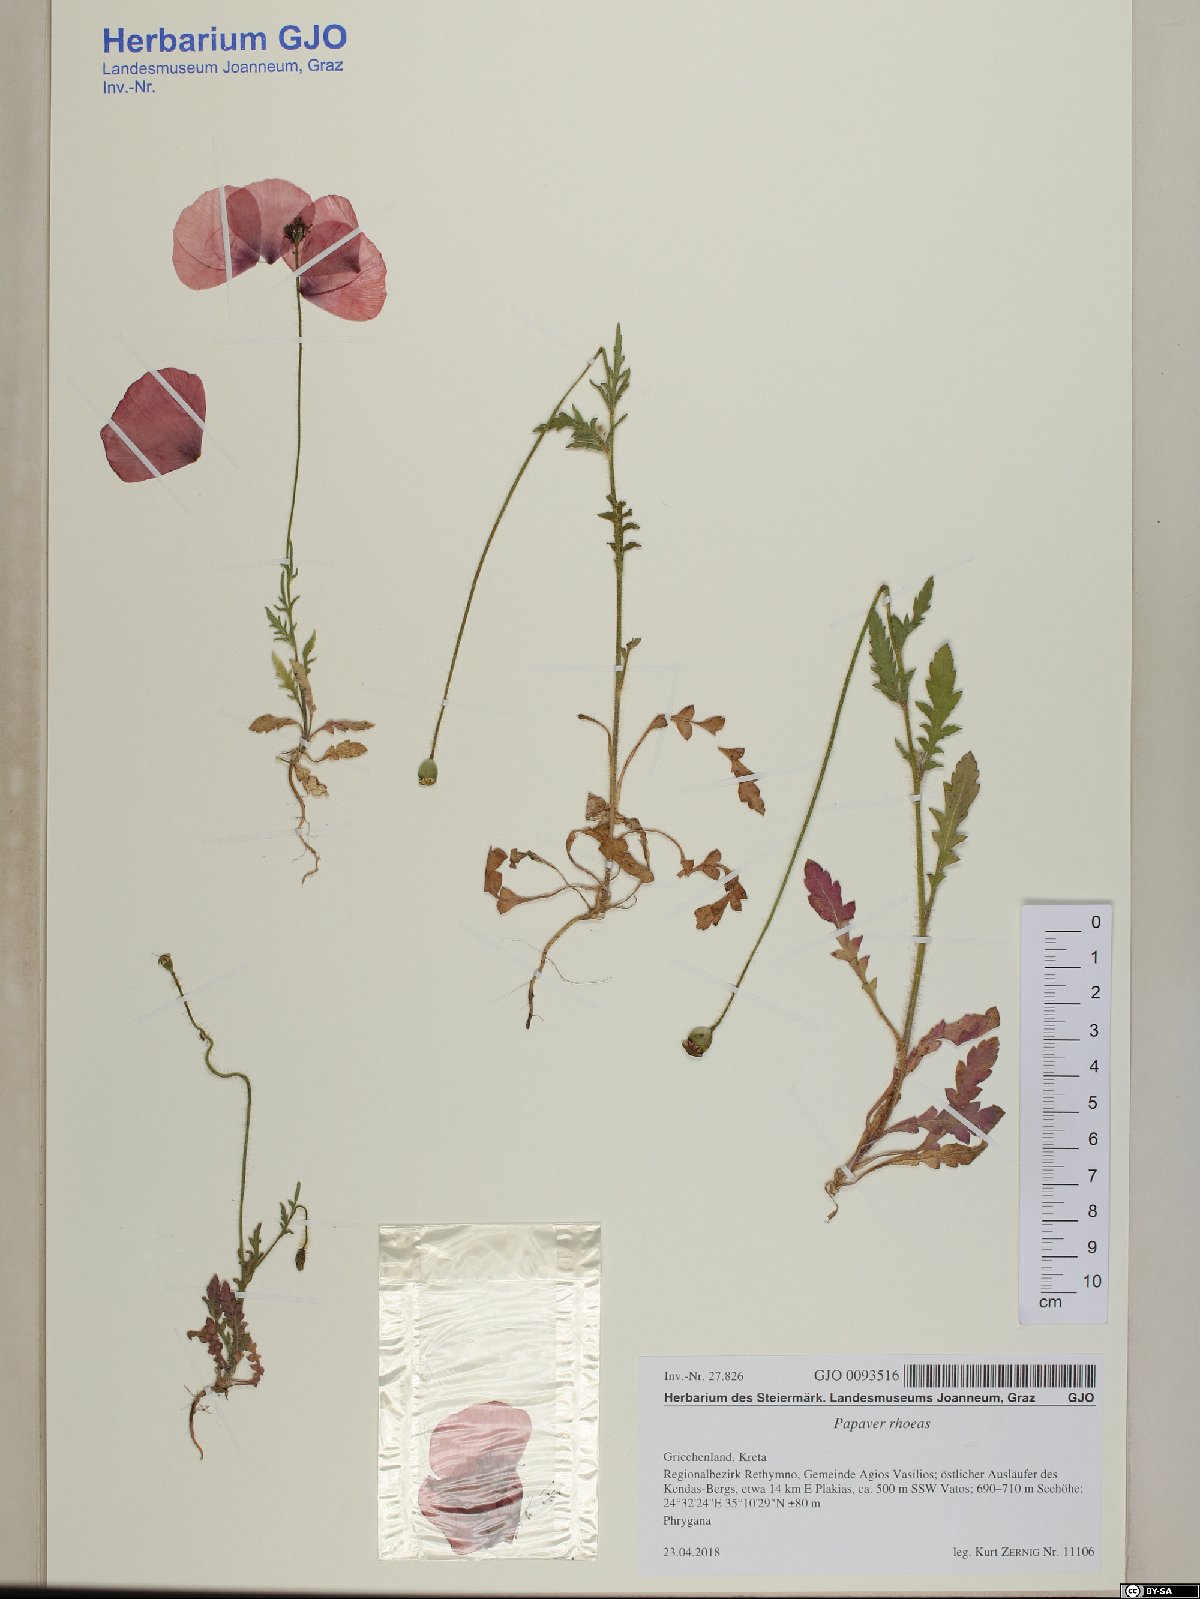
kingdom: Plantae
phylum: Tracheophyta
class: Magnoliopsida
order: Ranunculales
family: Papaveraceae
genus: Papaver
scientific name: Papaver rhoeas
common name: Corn poppy
